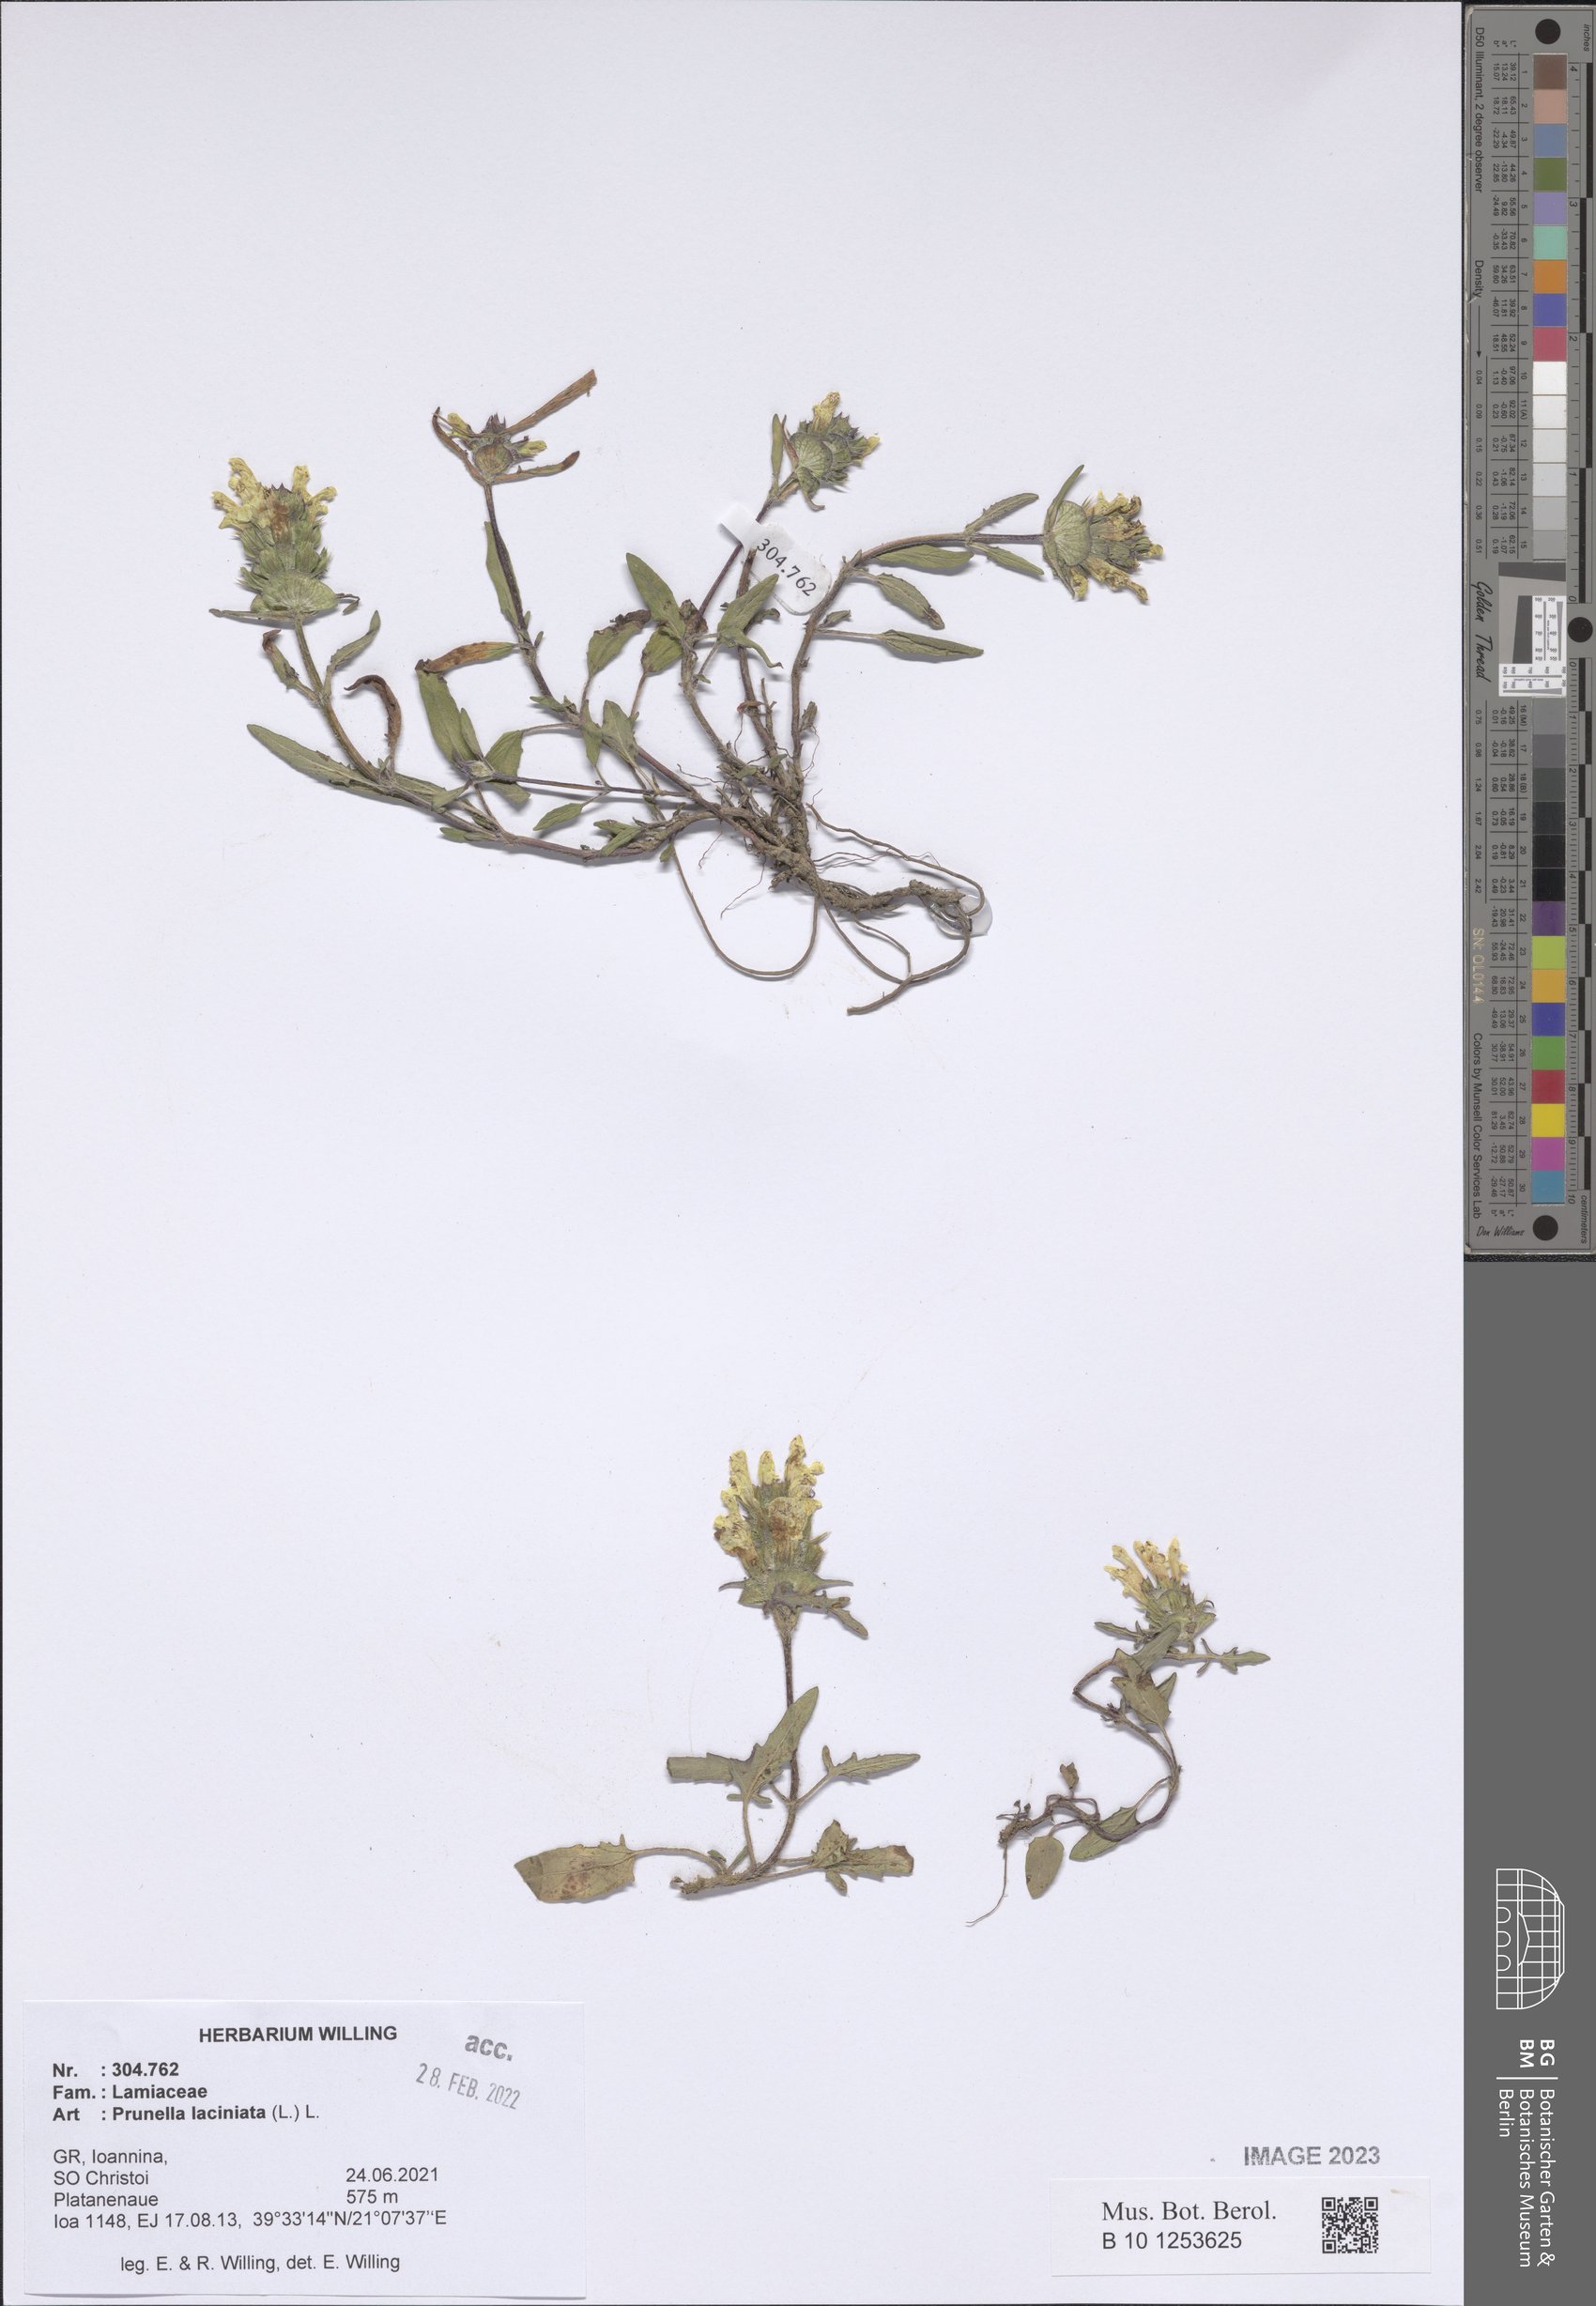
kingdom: Plantae
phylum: Tracheophyta
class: Magnoliopsida
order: Lamiales
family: Lamiaceae
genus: Prunella
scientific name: Prunella laciniata
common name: Cut-leaved selfheal
